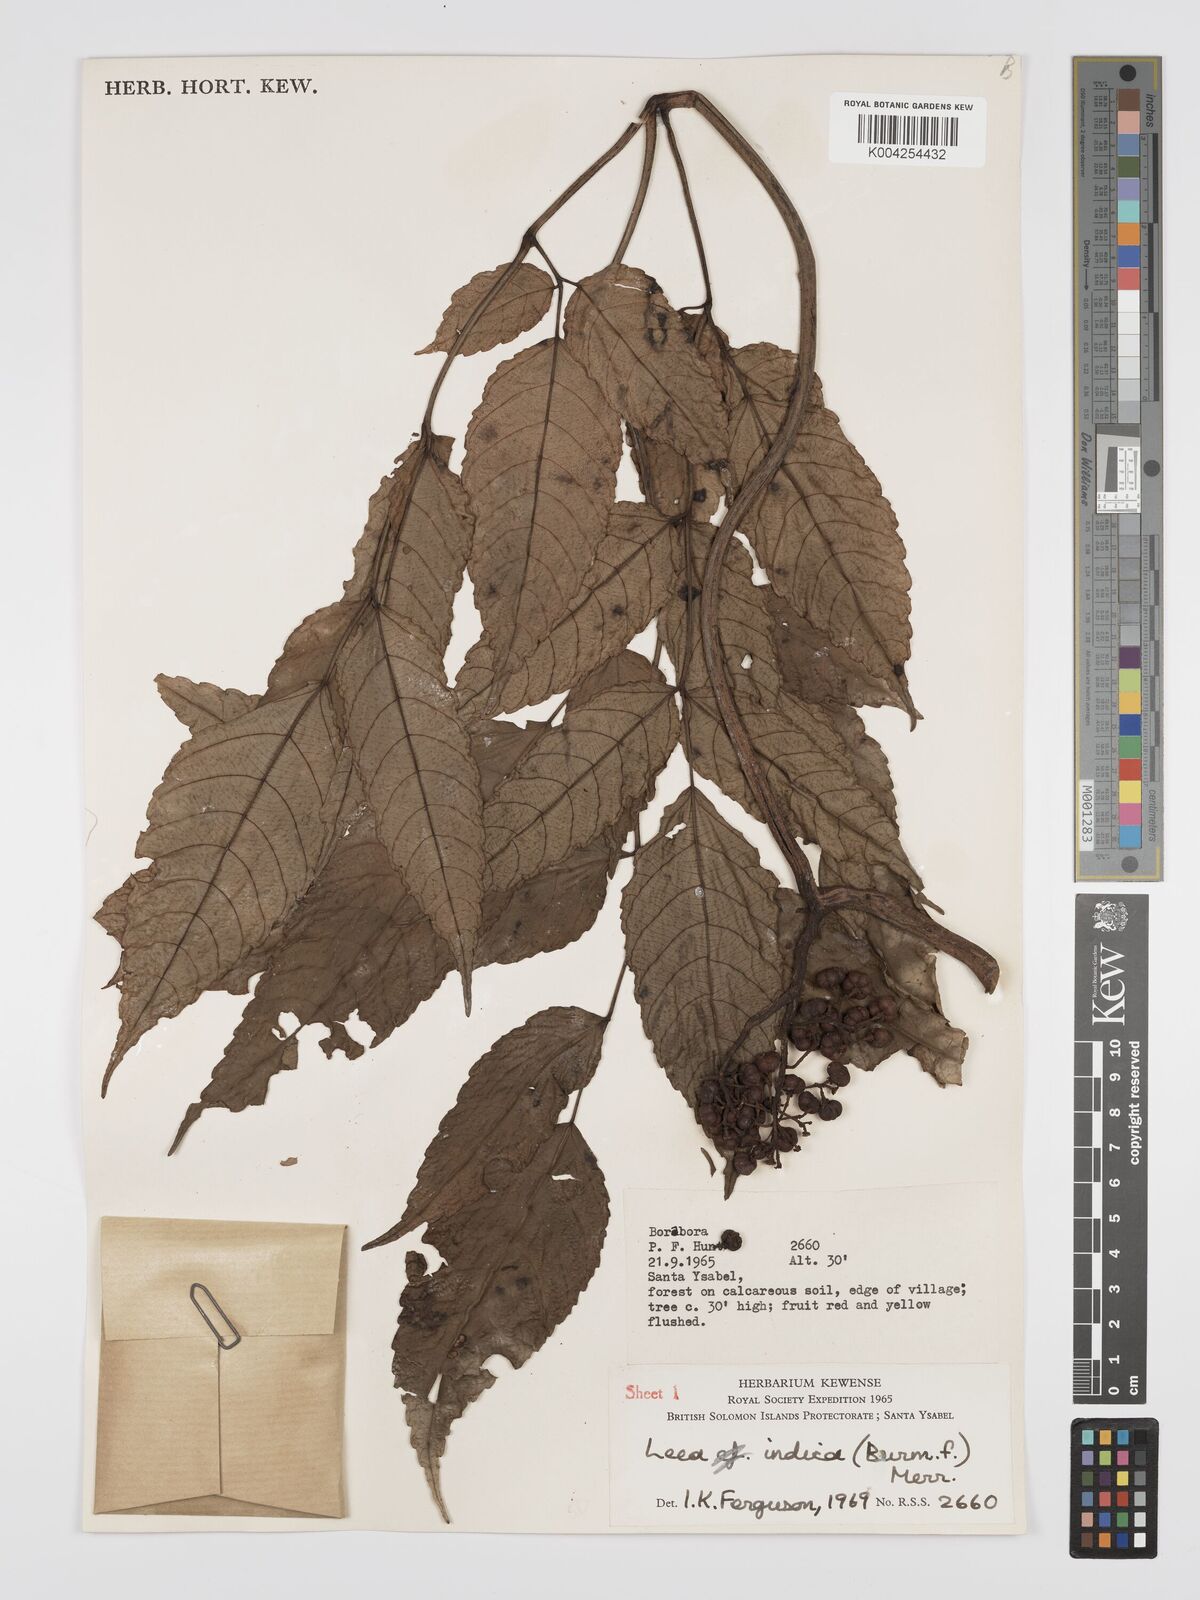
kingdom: Plantae
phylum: Tracheophyta
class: Magnoliopsida
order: Vitales
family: Vitaceae
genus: Leea
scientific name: Leea tetramera
